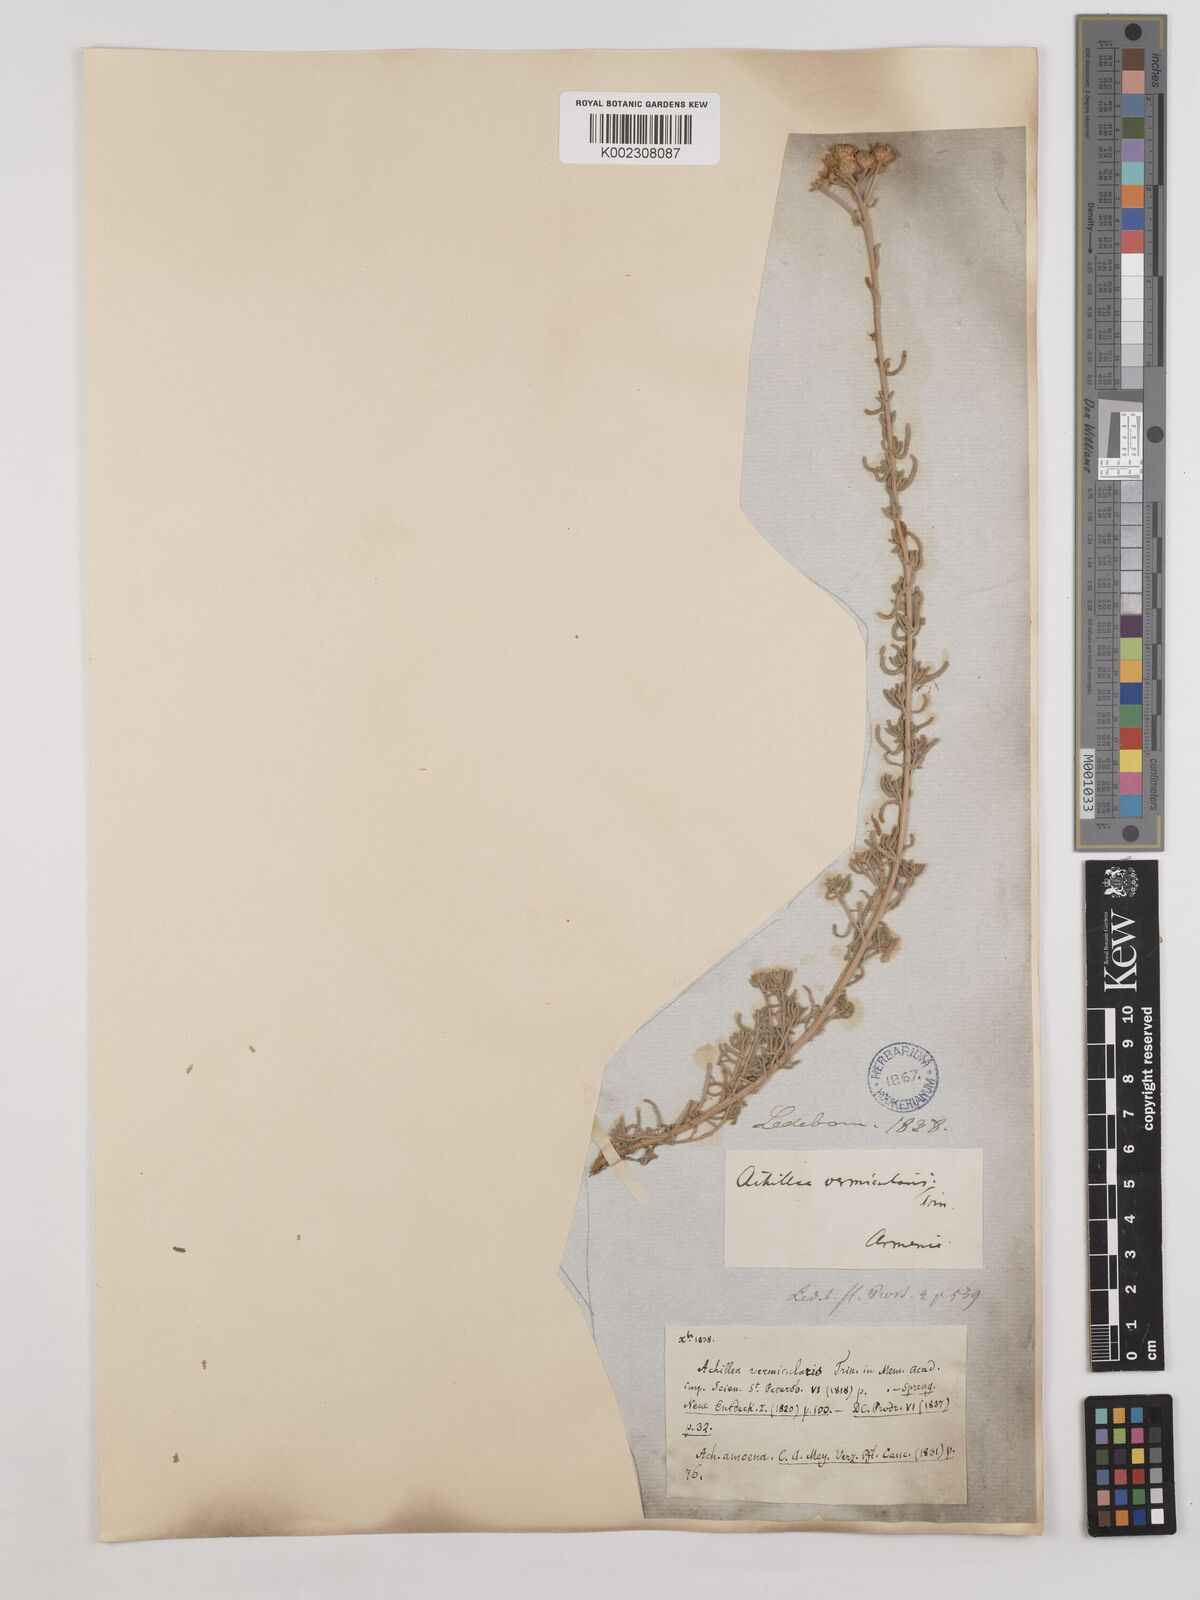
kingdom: Plantae
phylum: Tracheophyta
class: Magnoliopsida
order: Asterales
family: Asteraceae
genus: Achillea
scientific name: Achillea vermicularis
